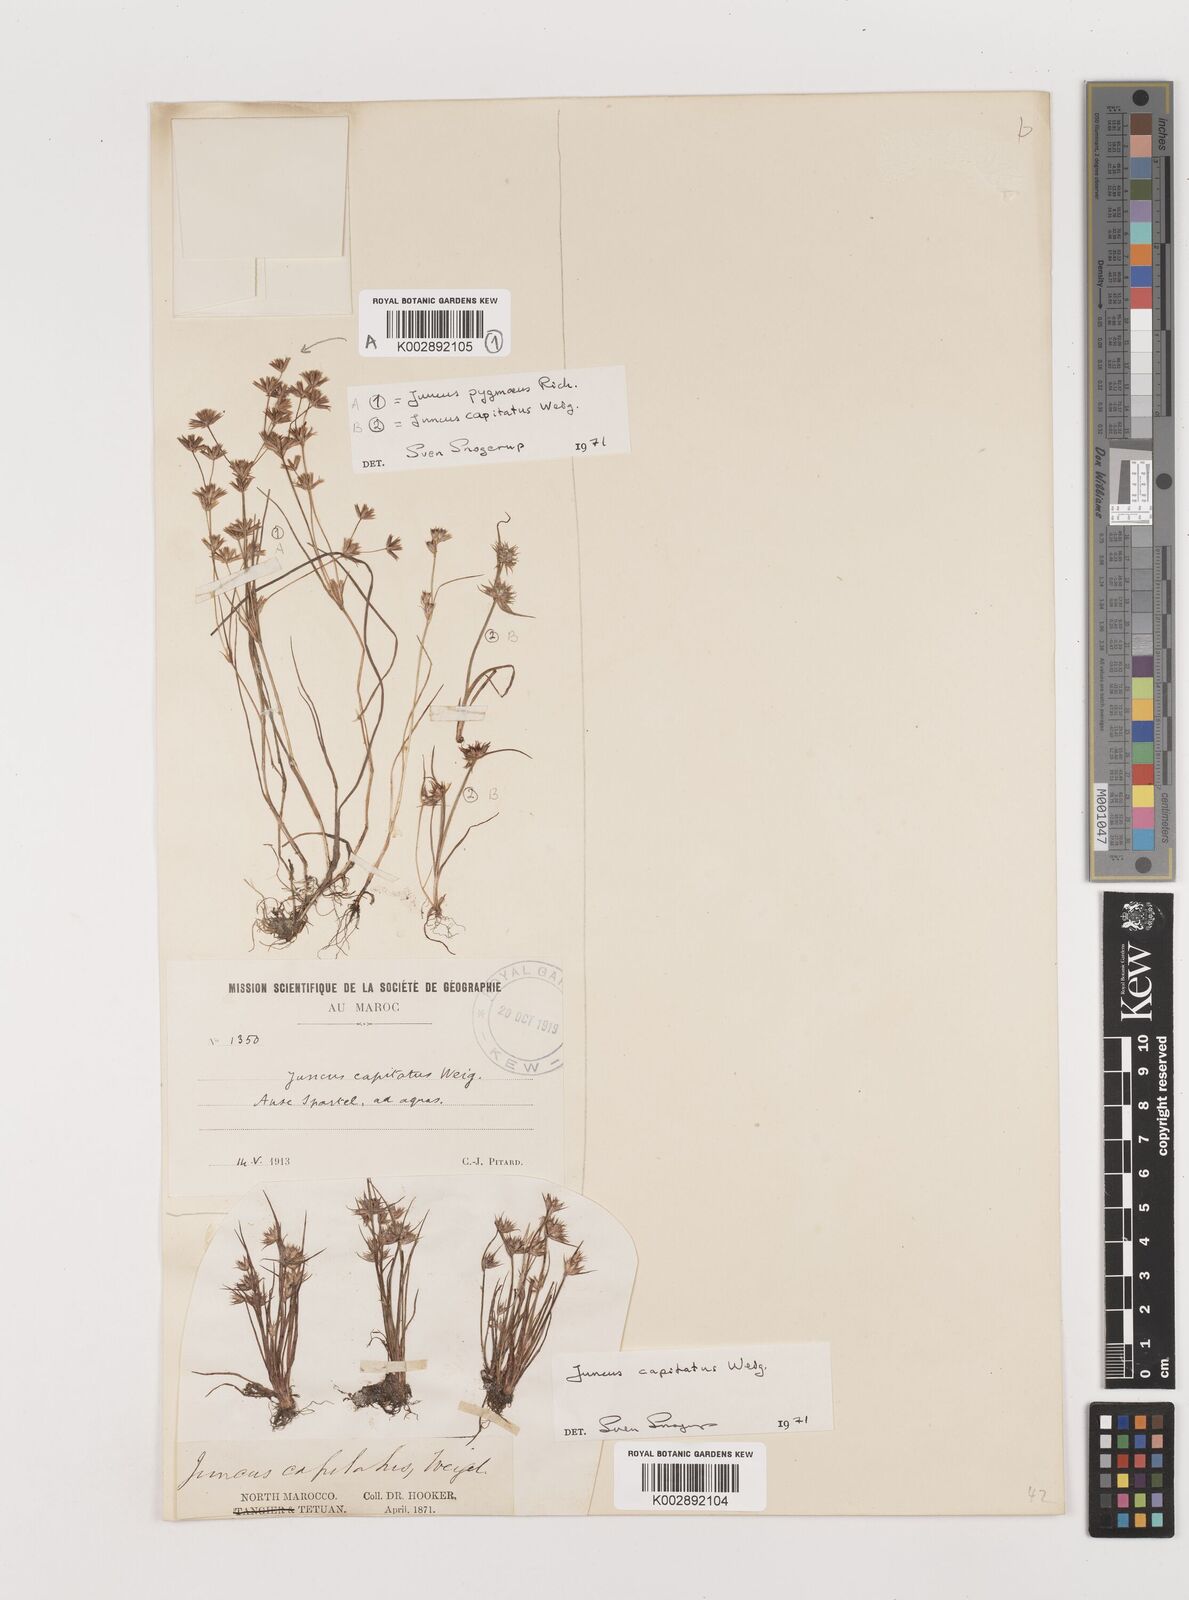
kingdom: Plantae
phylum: Tracheophyta
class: Liliopsida
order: Poales
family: Juncaceae
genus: Juncus
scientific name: Juncus capitatus
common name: Dwarf rush
